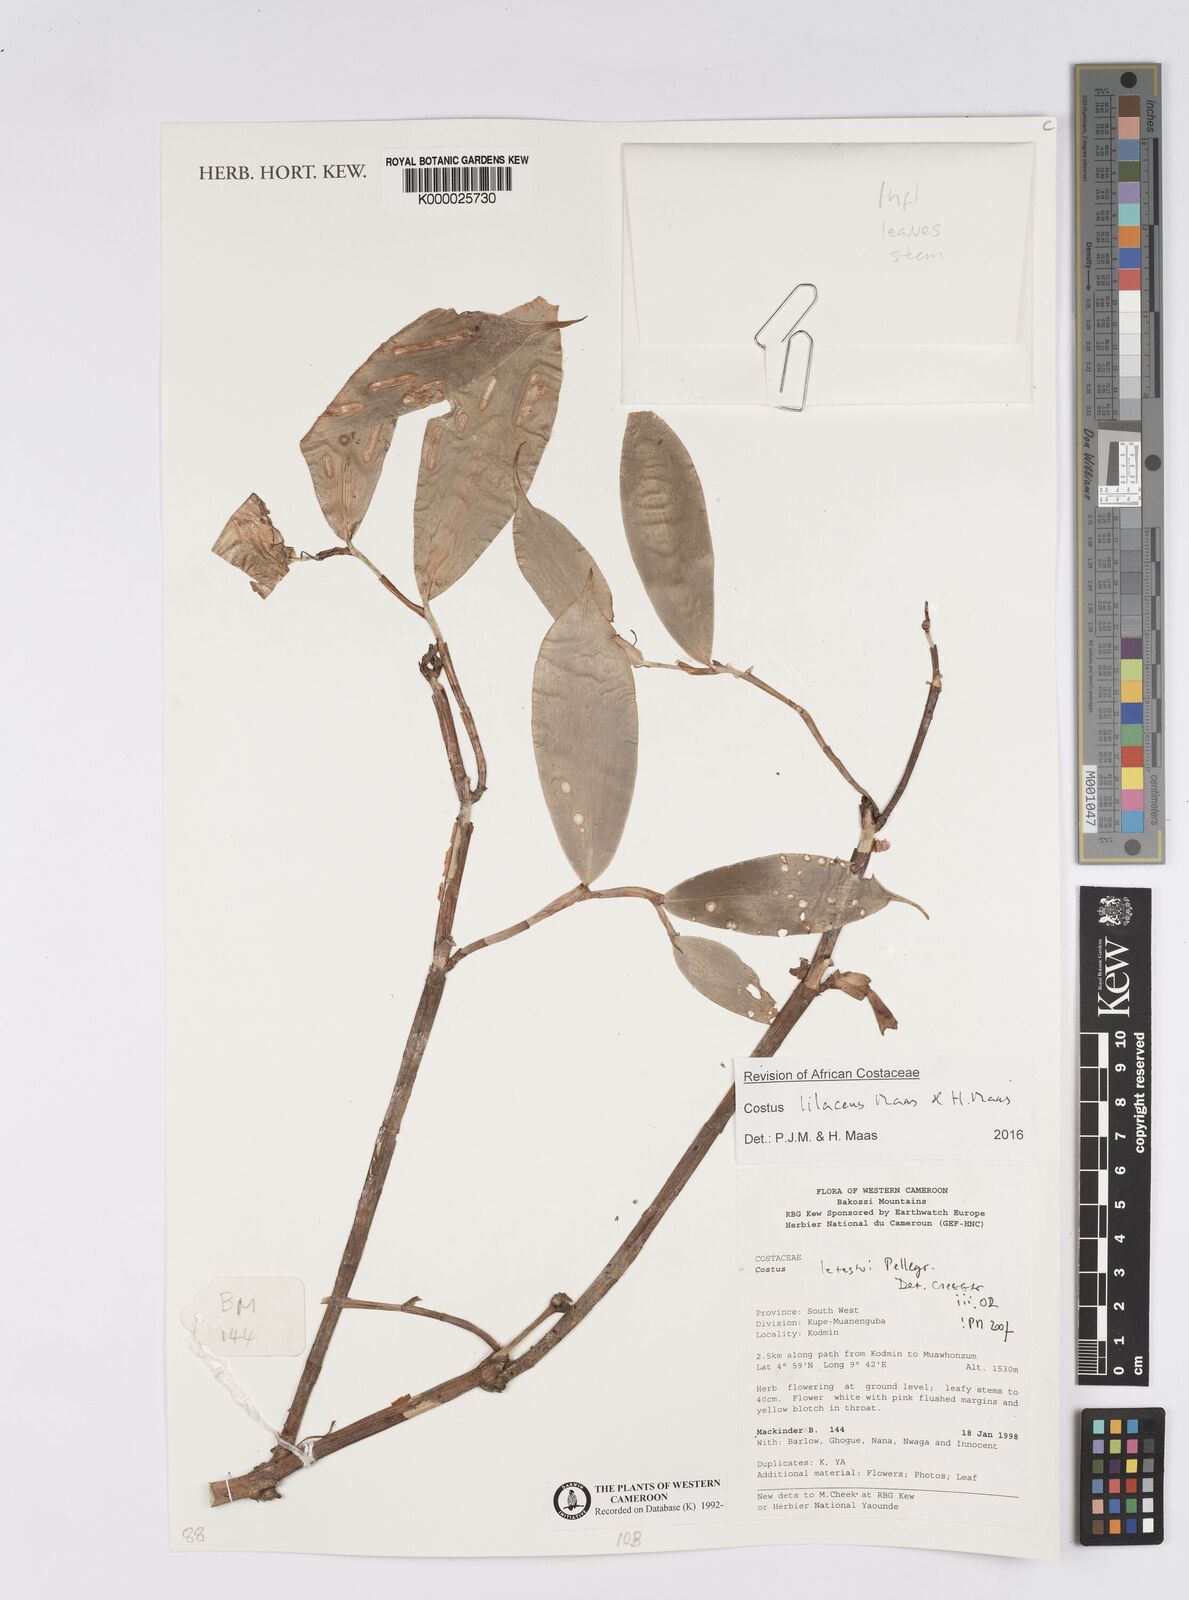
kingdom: Plantae
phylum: Tracheophyta
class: Liliopsida
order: Zingiberales
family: Costaceae
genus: Costus
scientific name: Costus lilaceus
